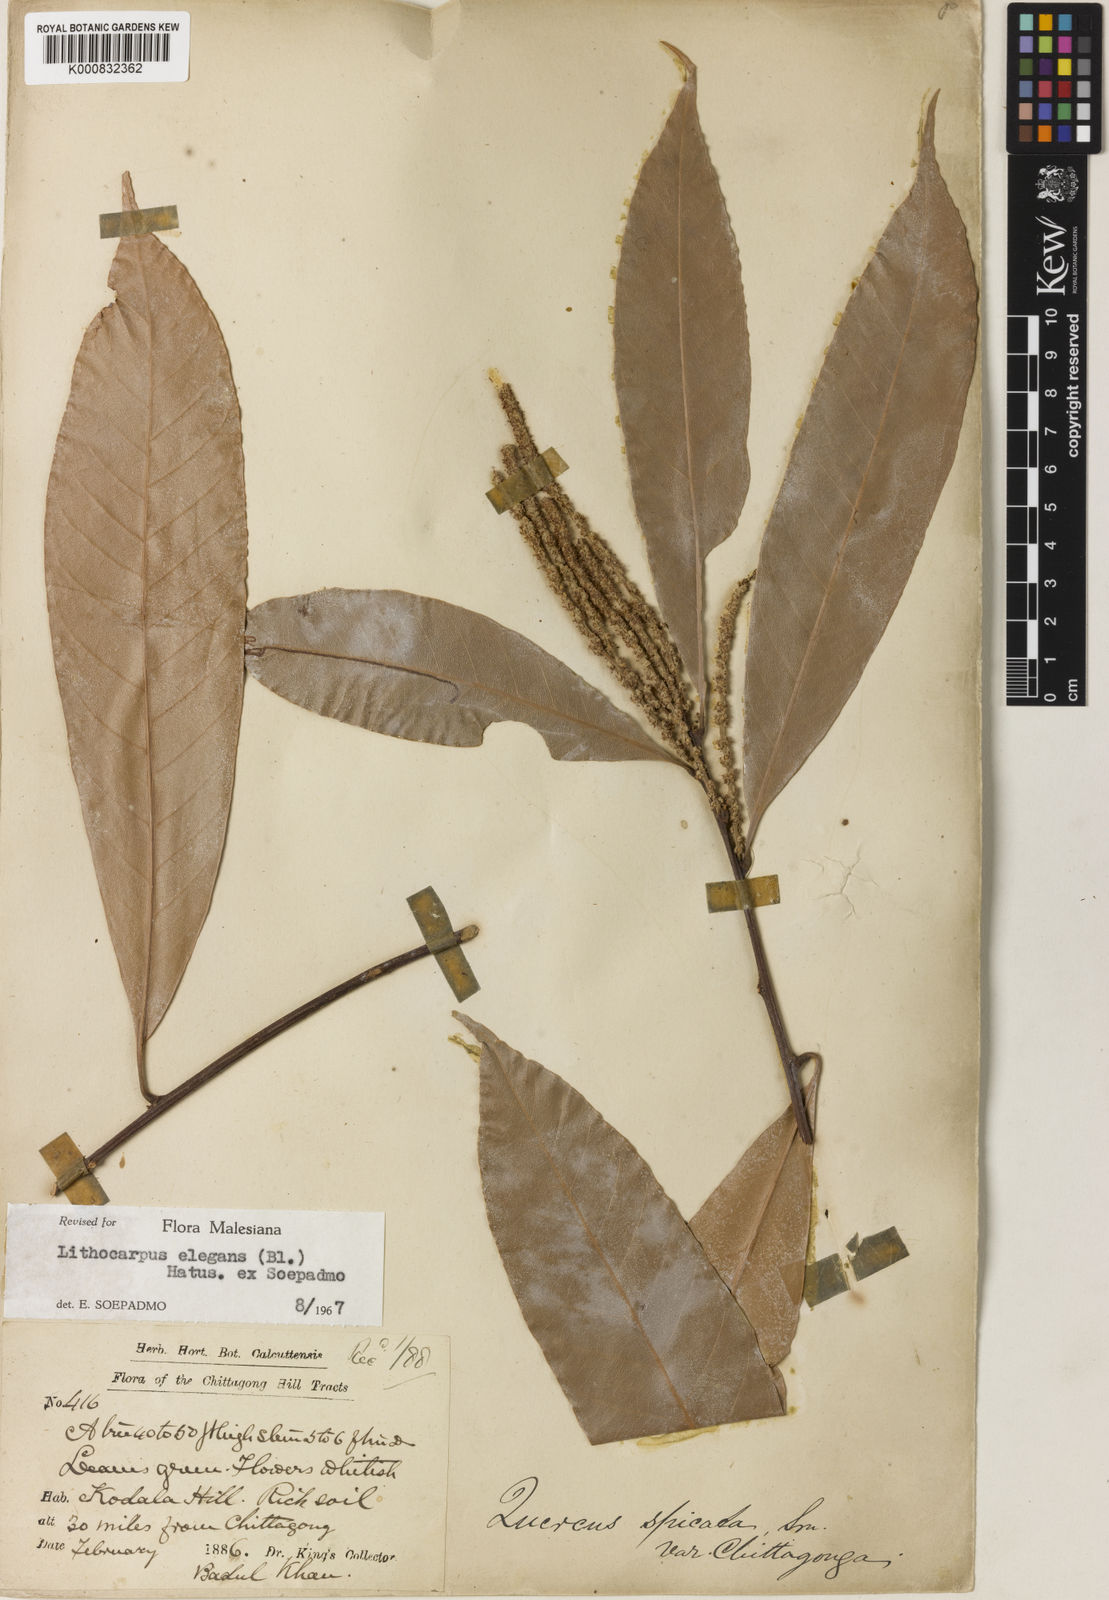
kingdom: Plantae
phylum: Tracheophyta
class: Magnoliopsida
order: Fagales
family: Fagaceae
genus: Lithocarpus
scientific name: Lithocarpus chittagongus
